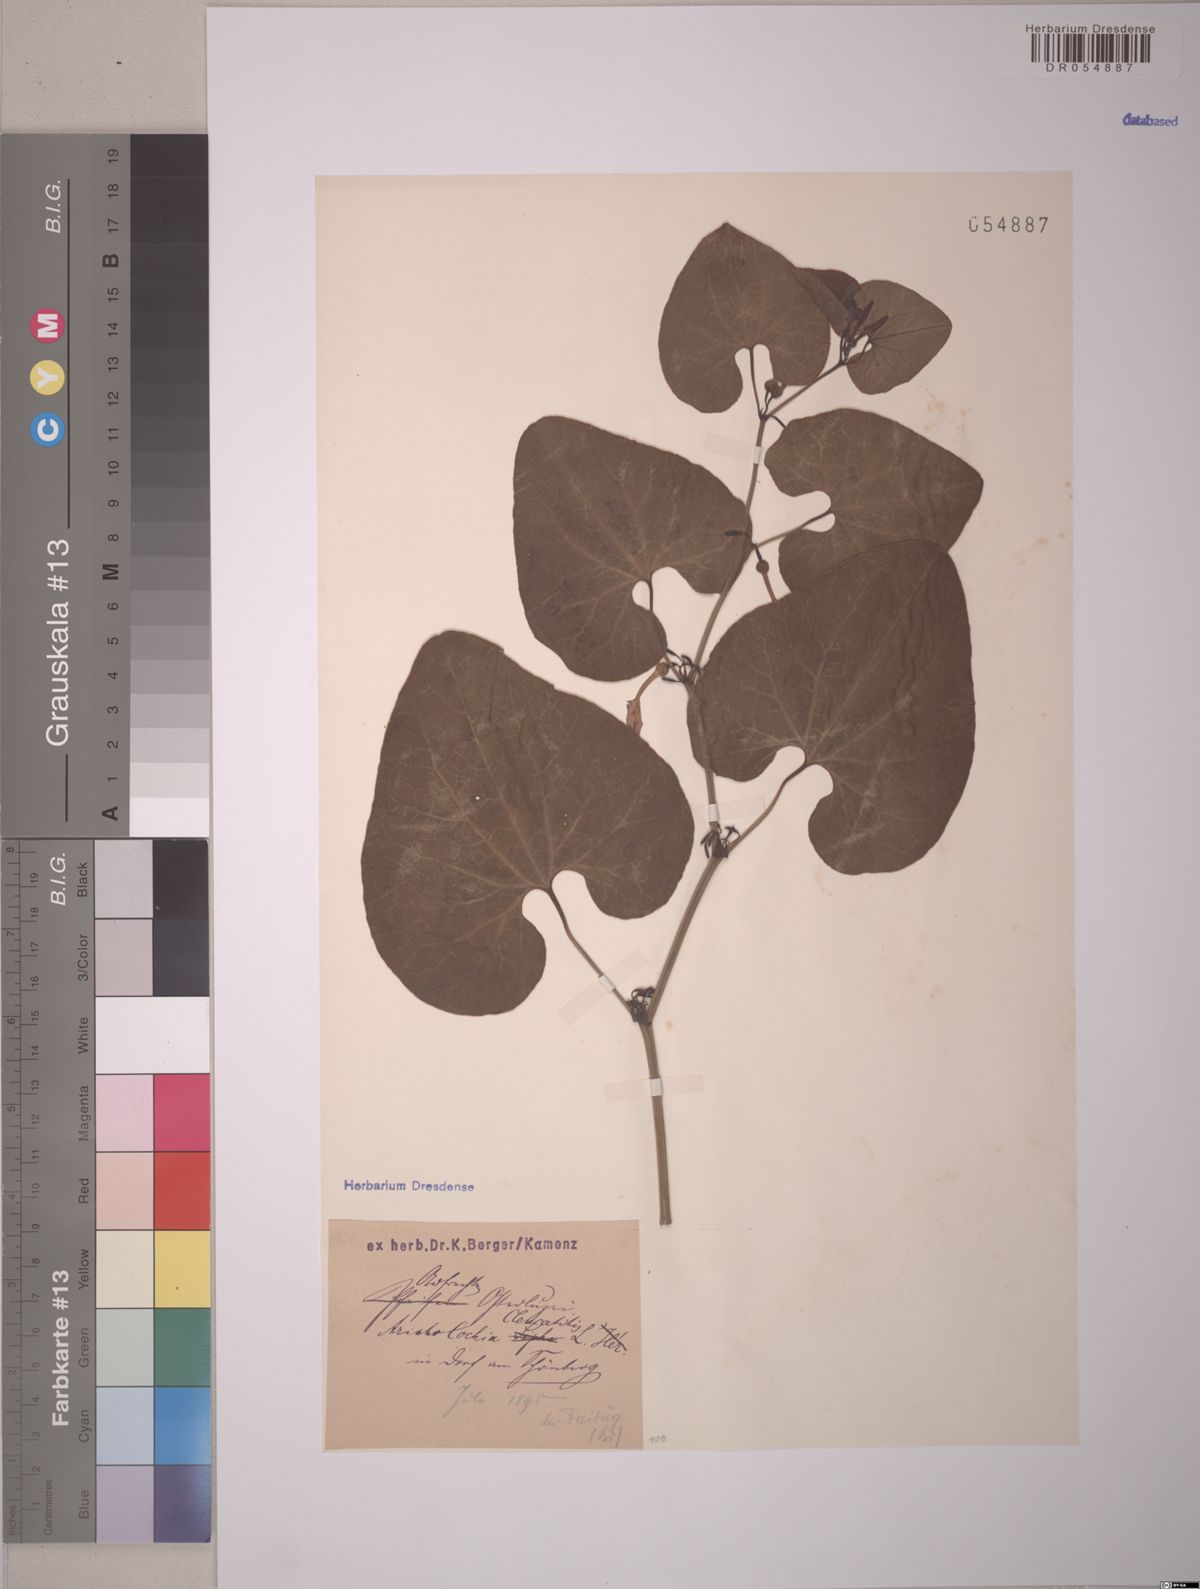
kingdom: Plantae
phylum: Tracheophyta
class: Magnoliopsida
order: Piperales
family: Aristolochiaceae
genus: Aristolochia
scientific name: Aristolochia clematitis
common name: Birthwort
